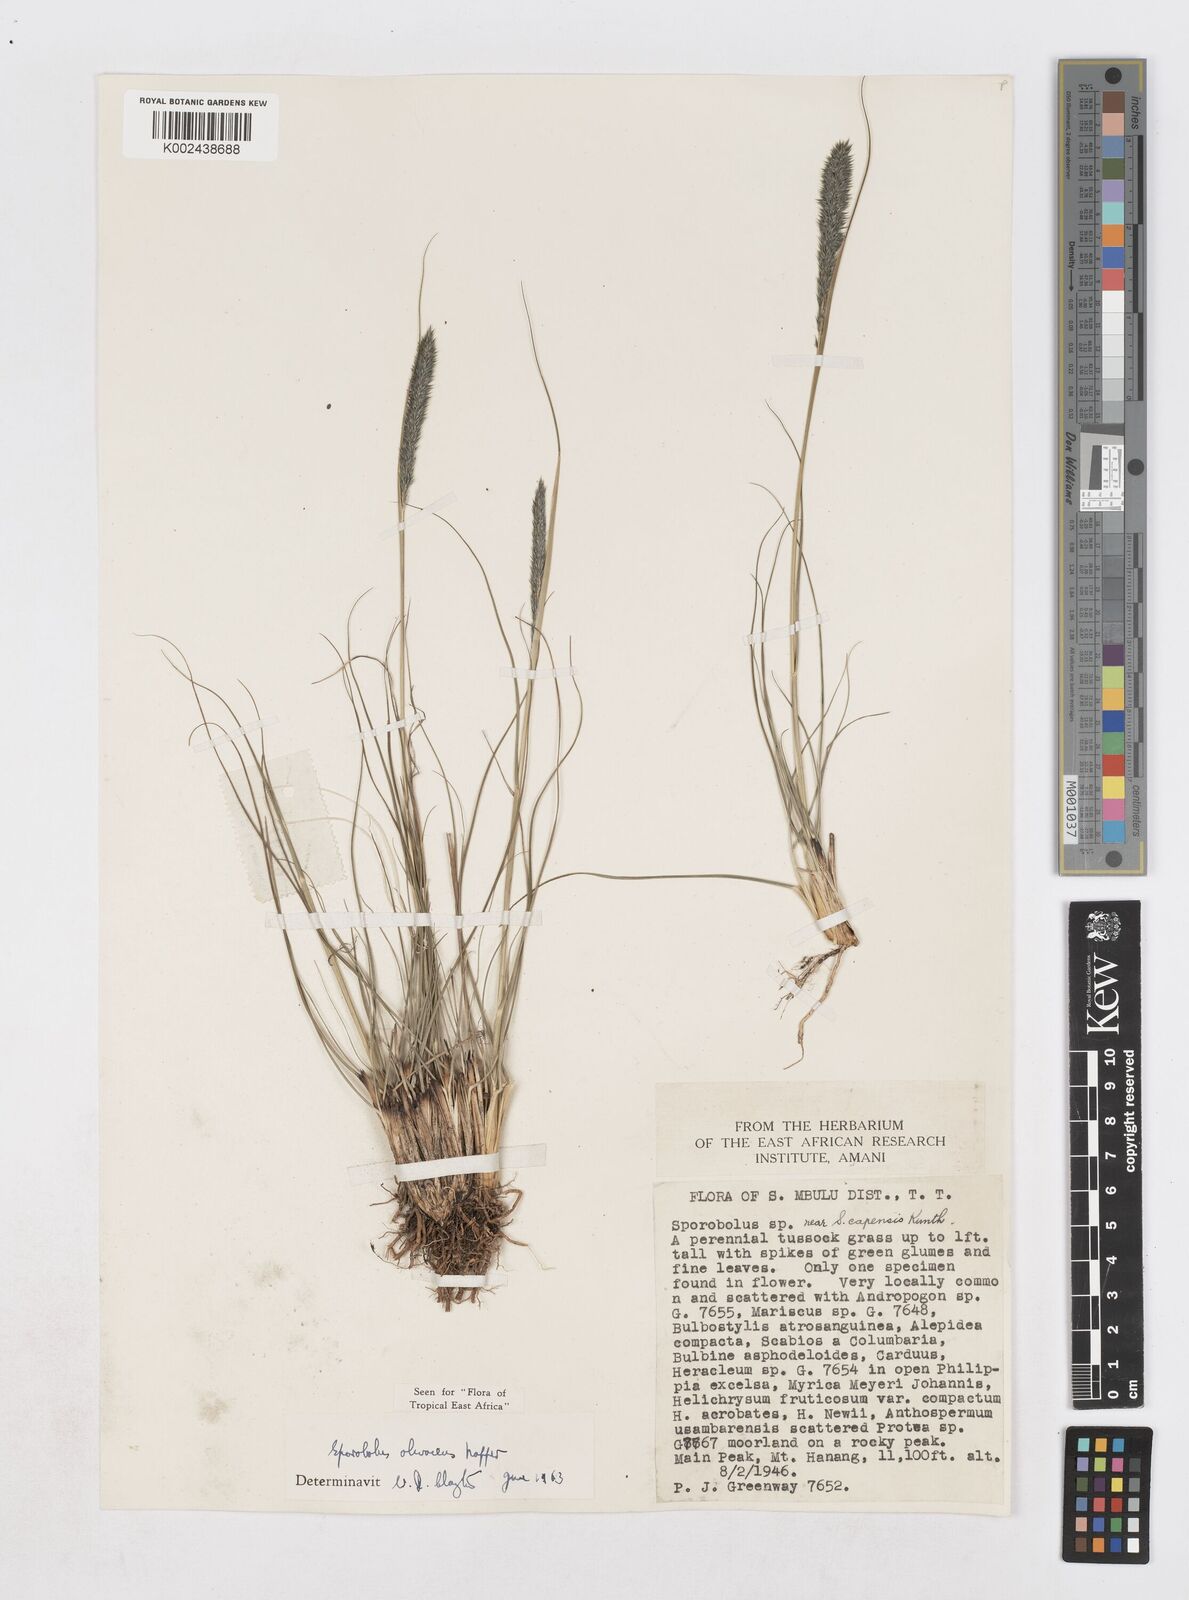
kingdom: Plantae
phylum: Tracheophyta
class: Liliopsida
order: Poales
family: Poaceae
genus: Sporobolus
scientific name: Sporobolus olivaceus
